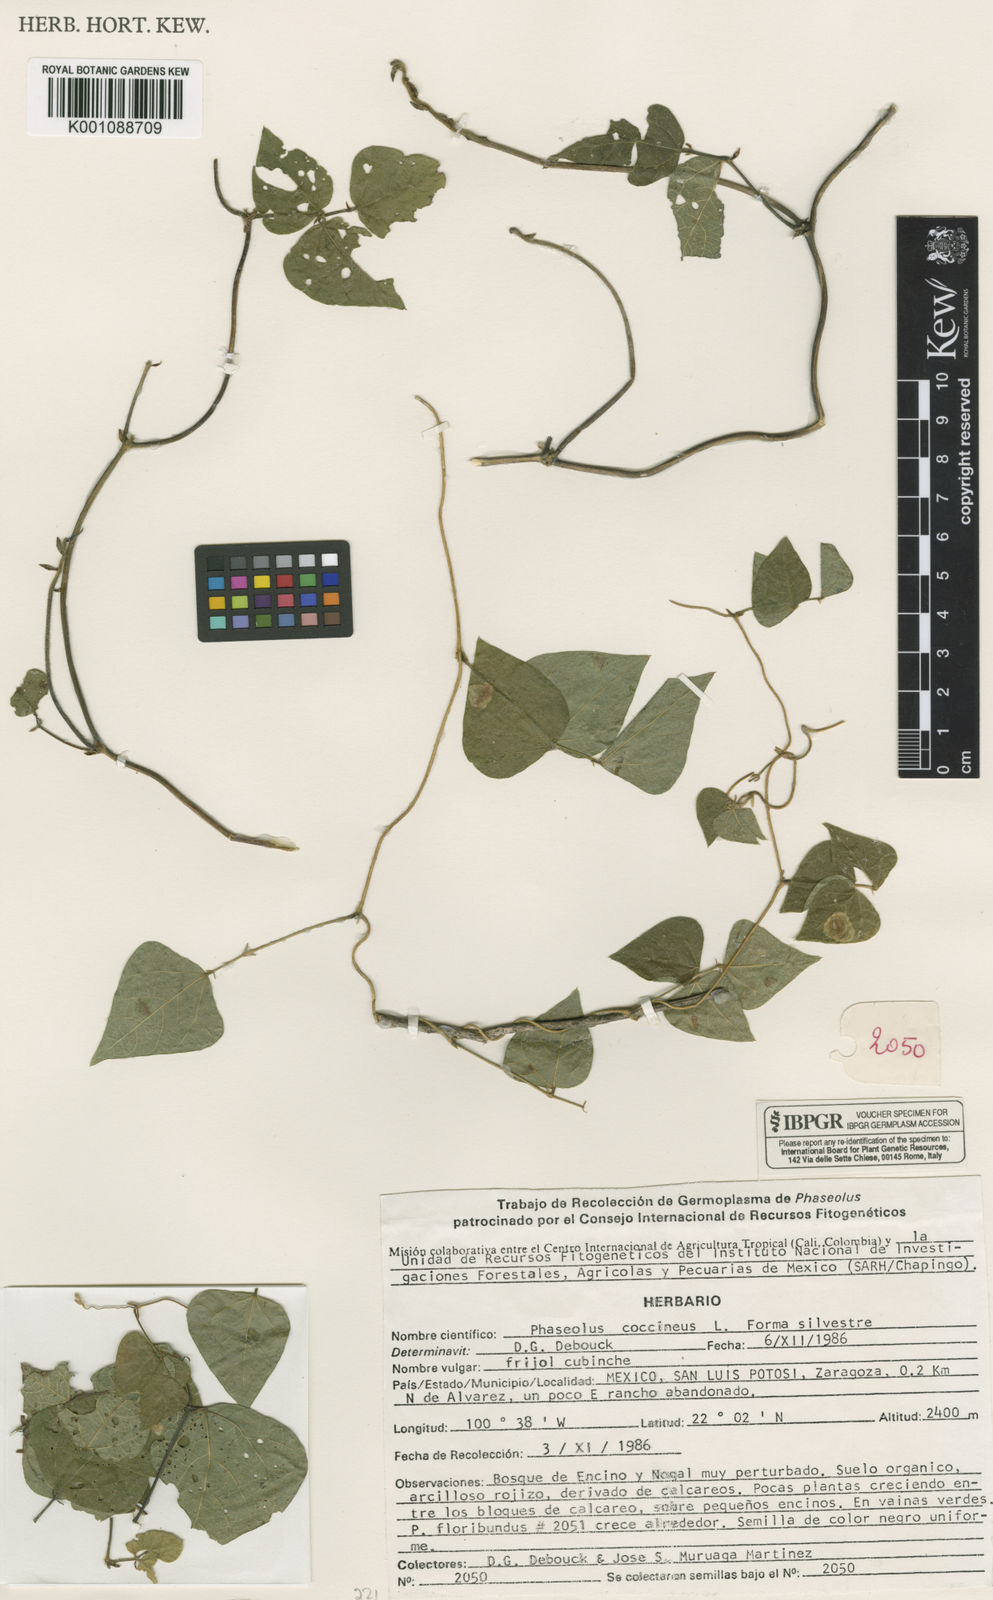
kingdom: Plantae
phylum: Tracheophyta
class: Magnoliopsida
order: Fabales
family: Fabaceae
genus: Phaseolus
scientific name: Phaseolus coccineus
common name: Runner bean
